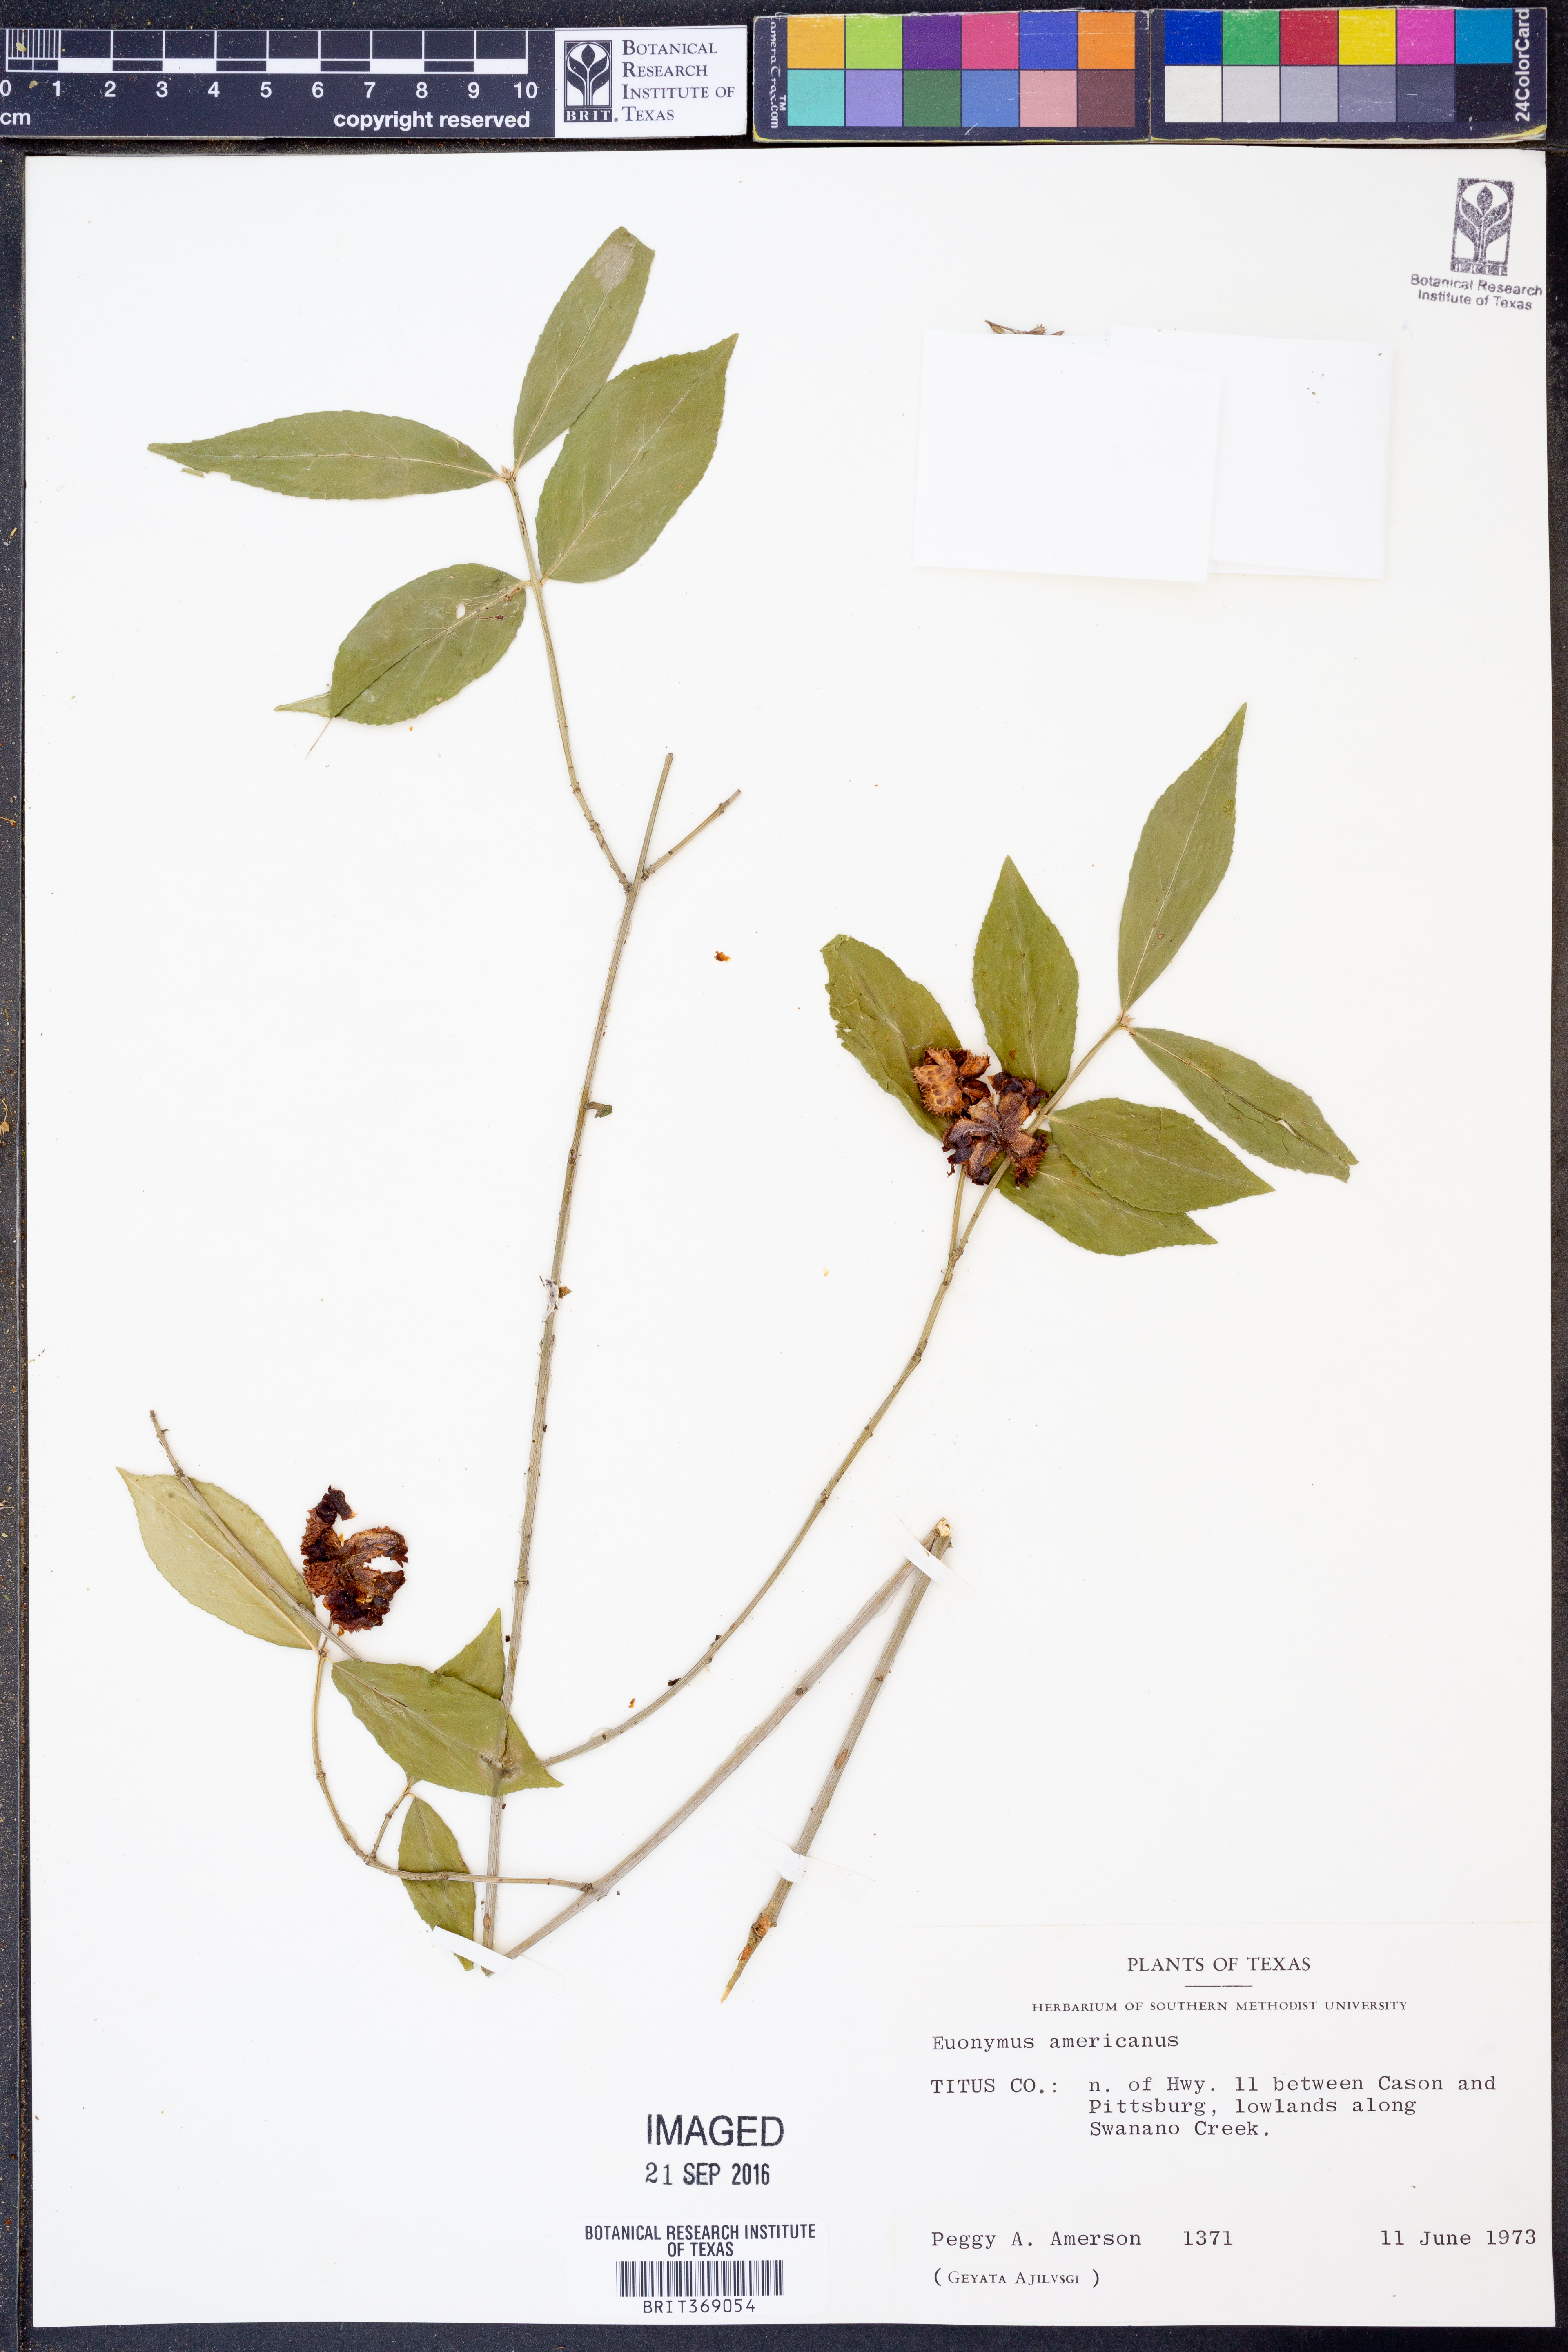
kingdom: Plantae
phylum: Tracheophyta
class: Magnoliopsida
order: Celastrales
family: Celastraceae
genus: Euonymus
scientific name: Euonymus americanus
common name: Bursting-heart
